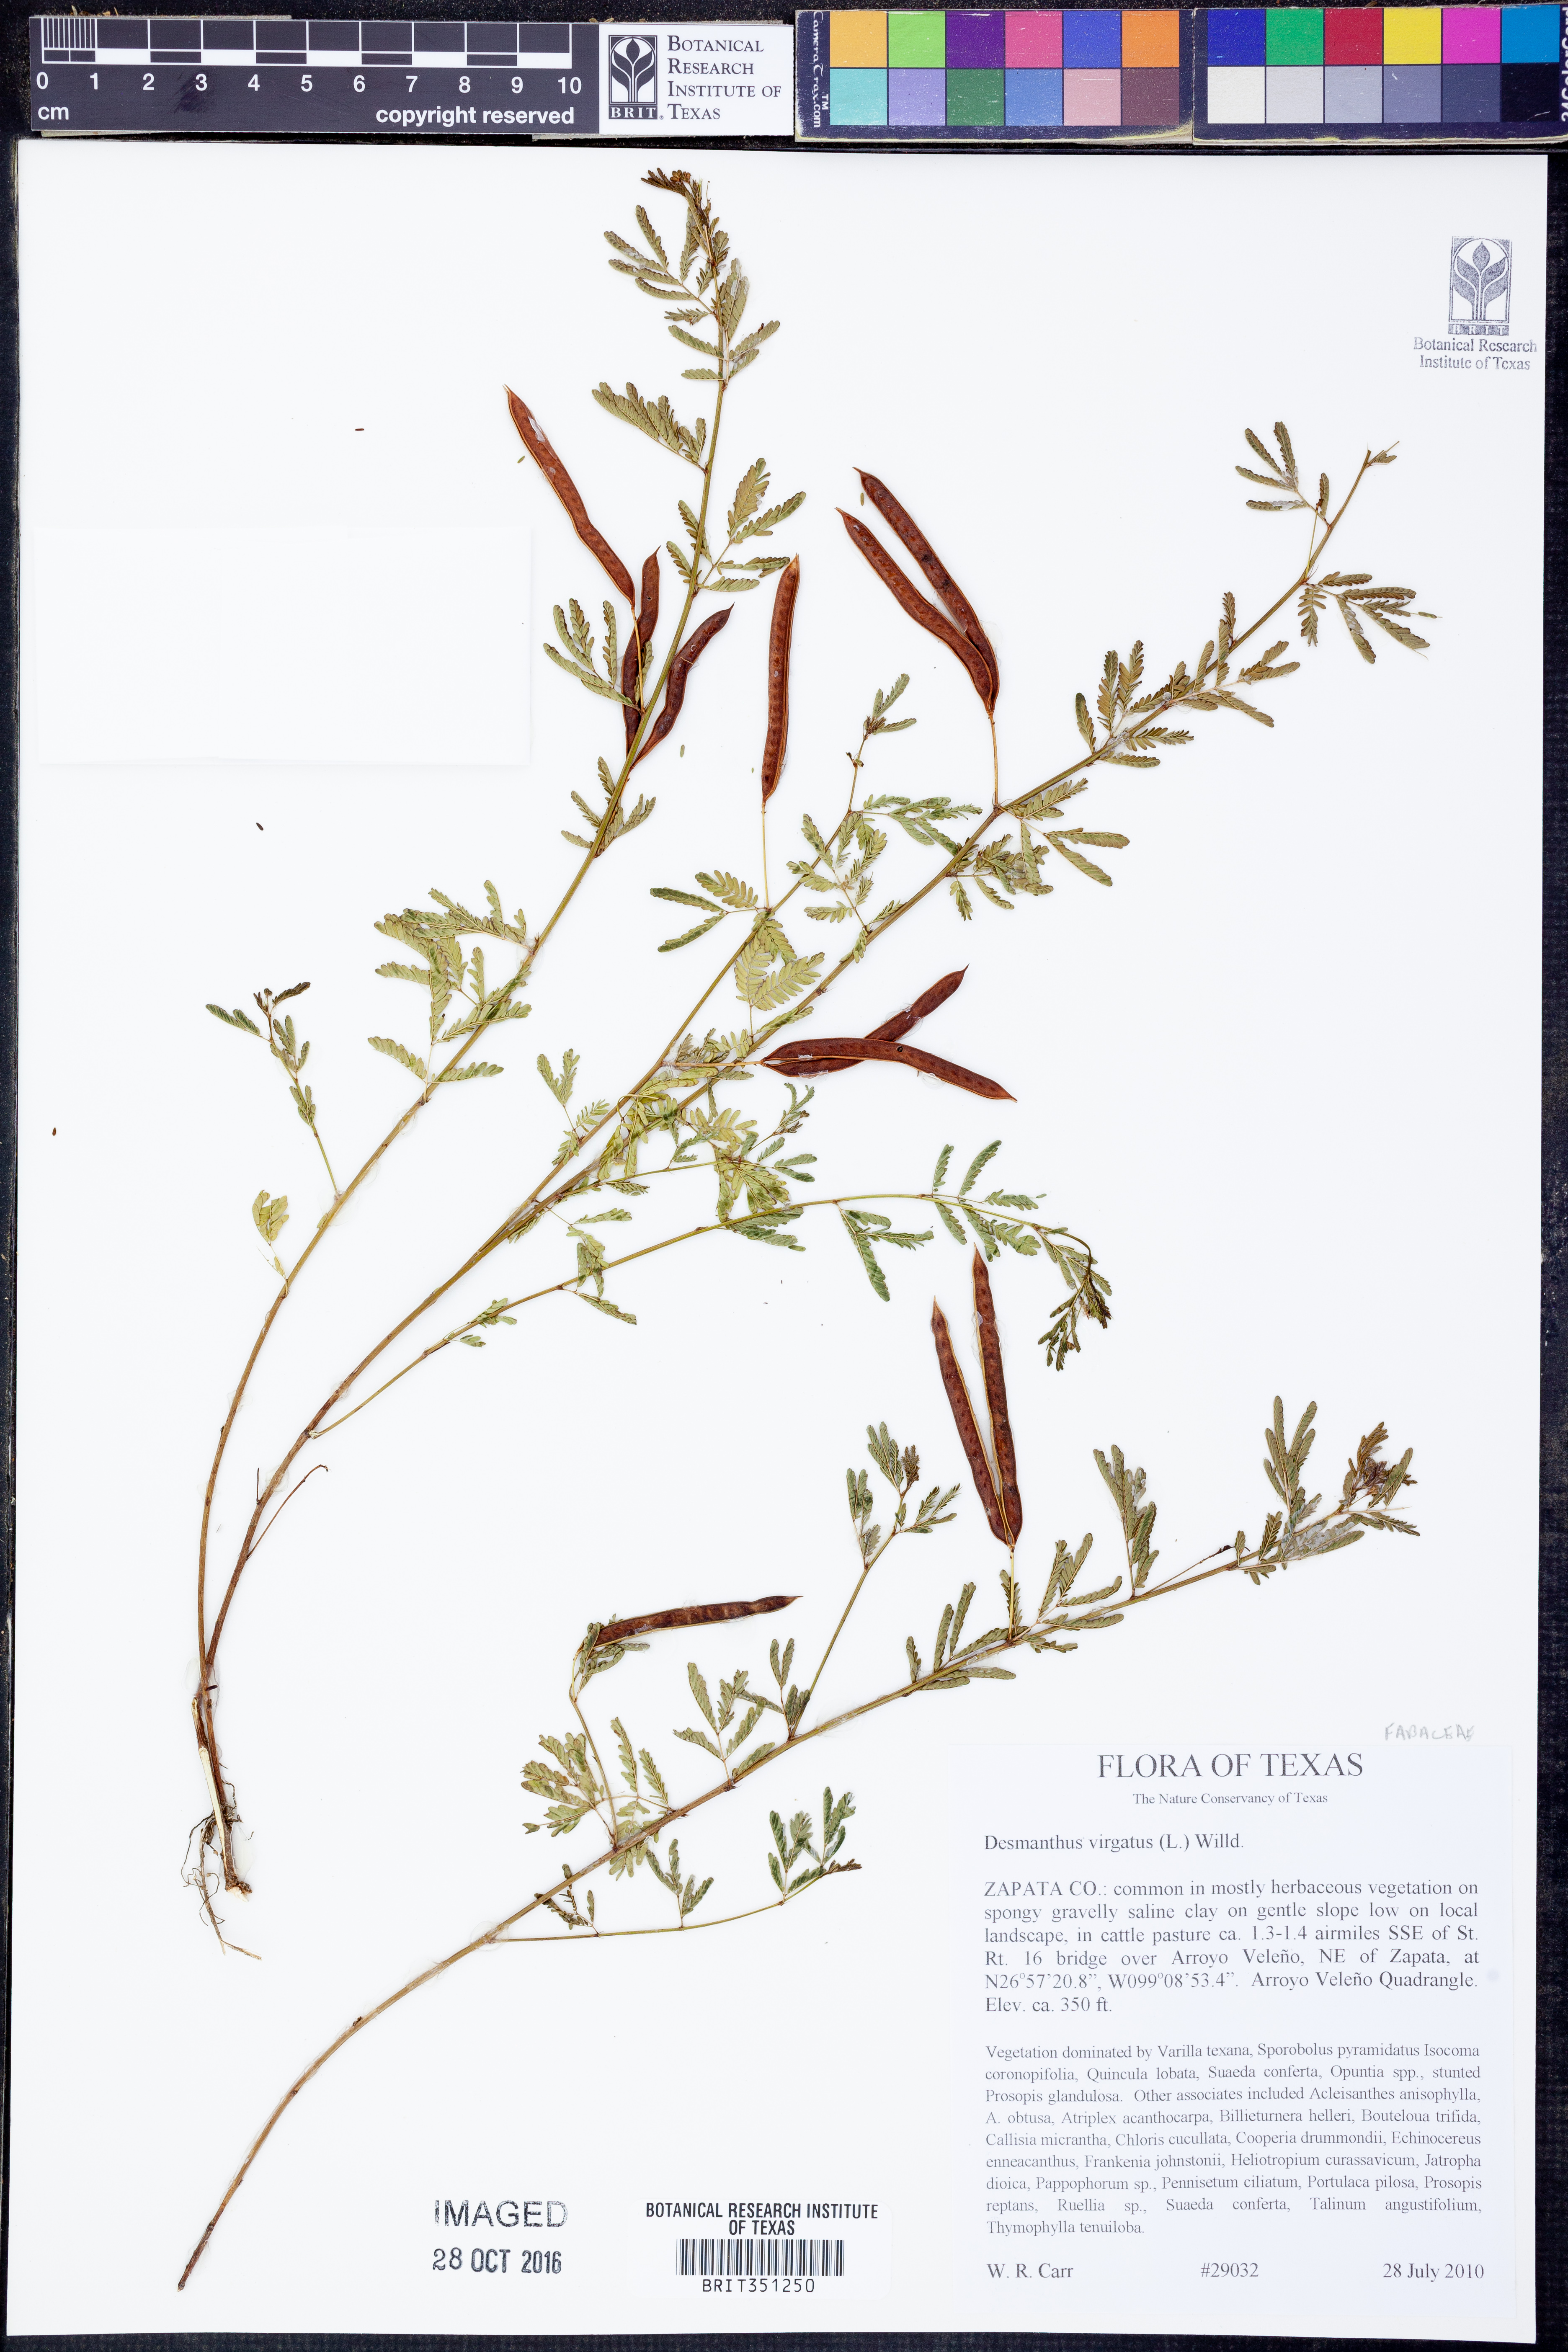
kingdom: Plantae
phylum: Tracheophyta
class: Magnoliopsida
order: Fabales
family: Fabaceae
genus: Desmanthus
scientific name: Desmanthus virgatus
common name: Wild tantan
